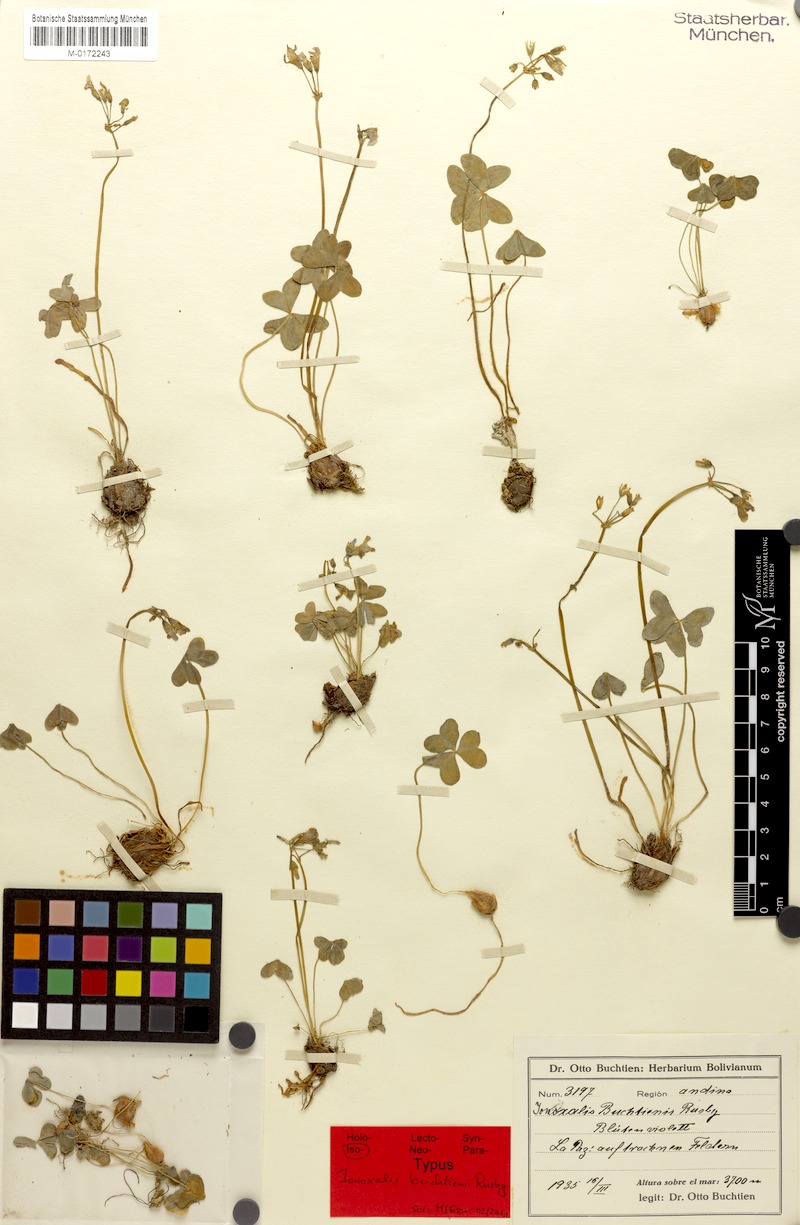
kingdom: Plantae
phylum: Tracheophyta
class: Magnoliopsida
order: Oxalidales
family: Oxalidaceae
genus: Oxalis
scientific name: Oxalis latifolia
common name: Garden pink-sorrel
